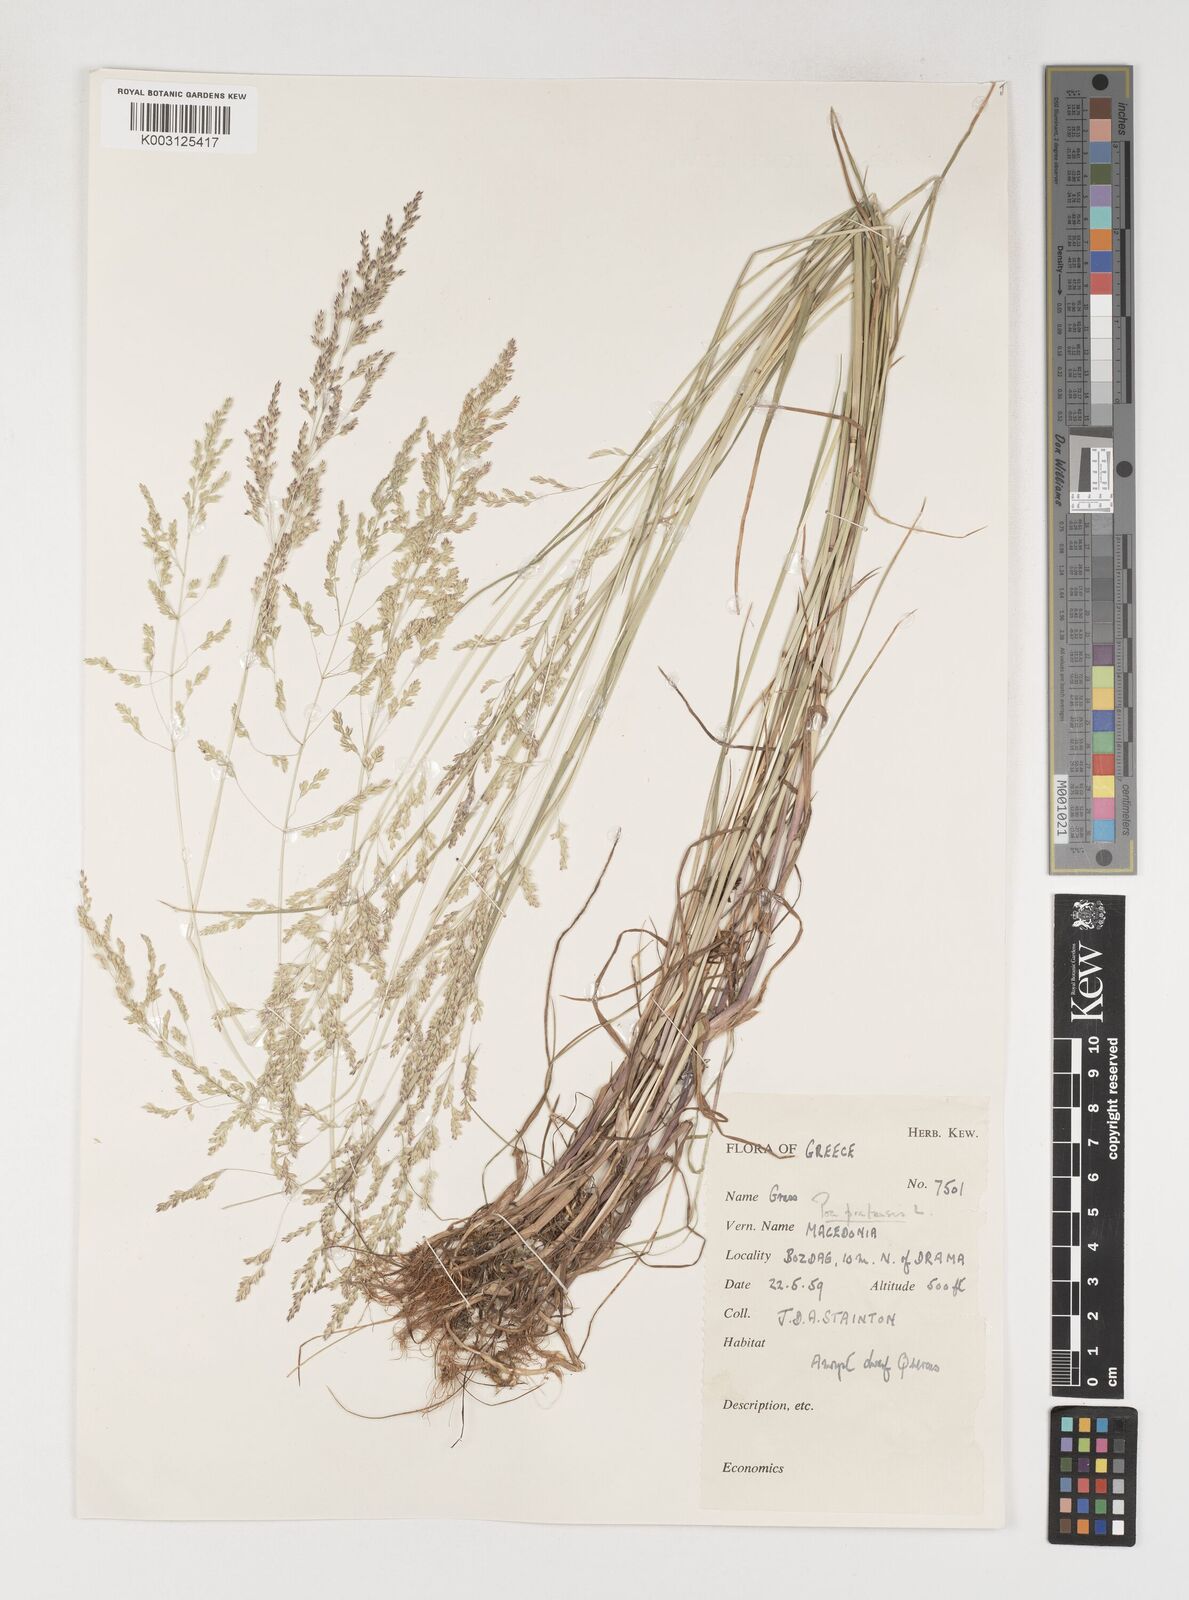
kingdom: Plantae
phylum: Tracheophyta
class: Liliopsida
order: Poales
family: Poaceae
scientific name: Poaceae
